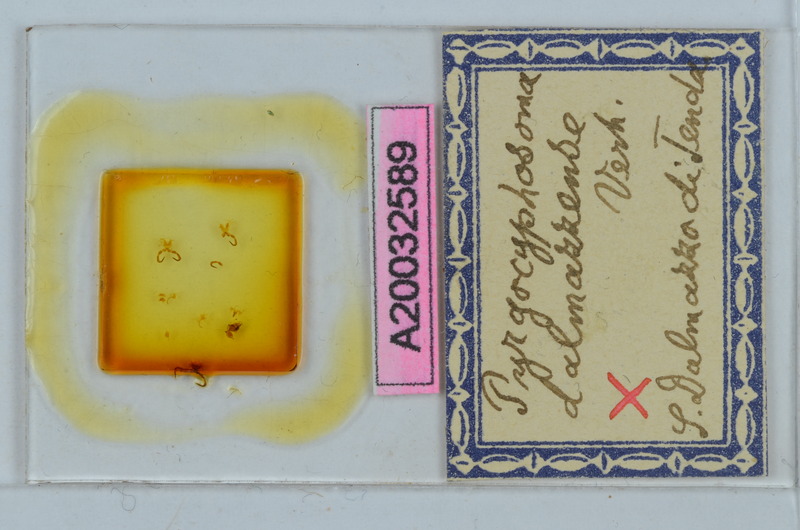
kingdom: Animalia
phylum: Arthropoda
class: Diplopoda
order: Chordeumatida
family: Craspedosomatidae
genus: Pyrgocyphosoma
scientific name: Pyrgocyphosoma dalmazzense
